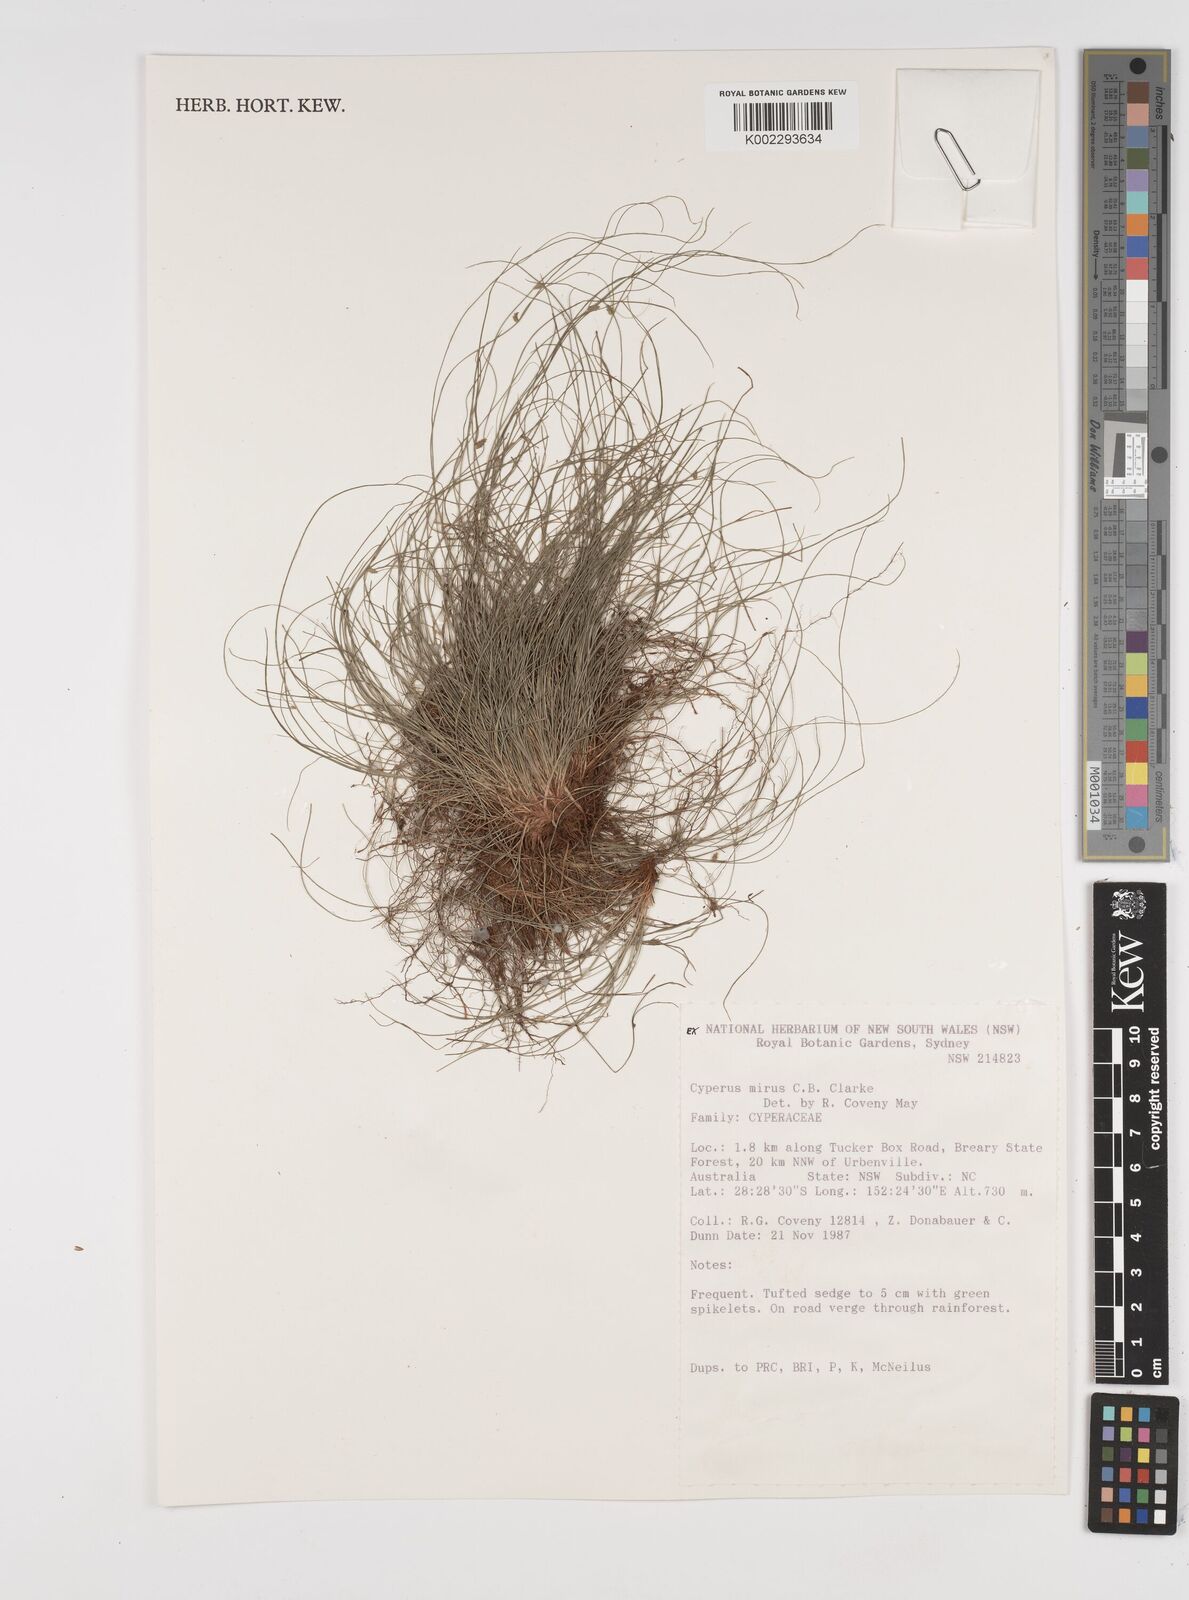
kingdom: Plantae
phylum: Tracheophyta
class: Liliopsida
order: Poales
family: Cyperaceae
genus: Cyperus
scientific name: Cyperus mirus
